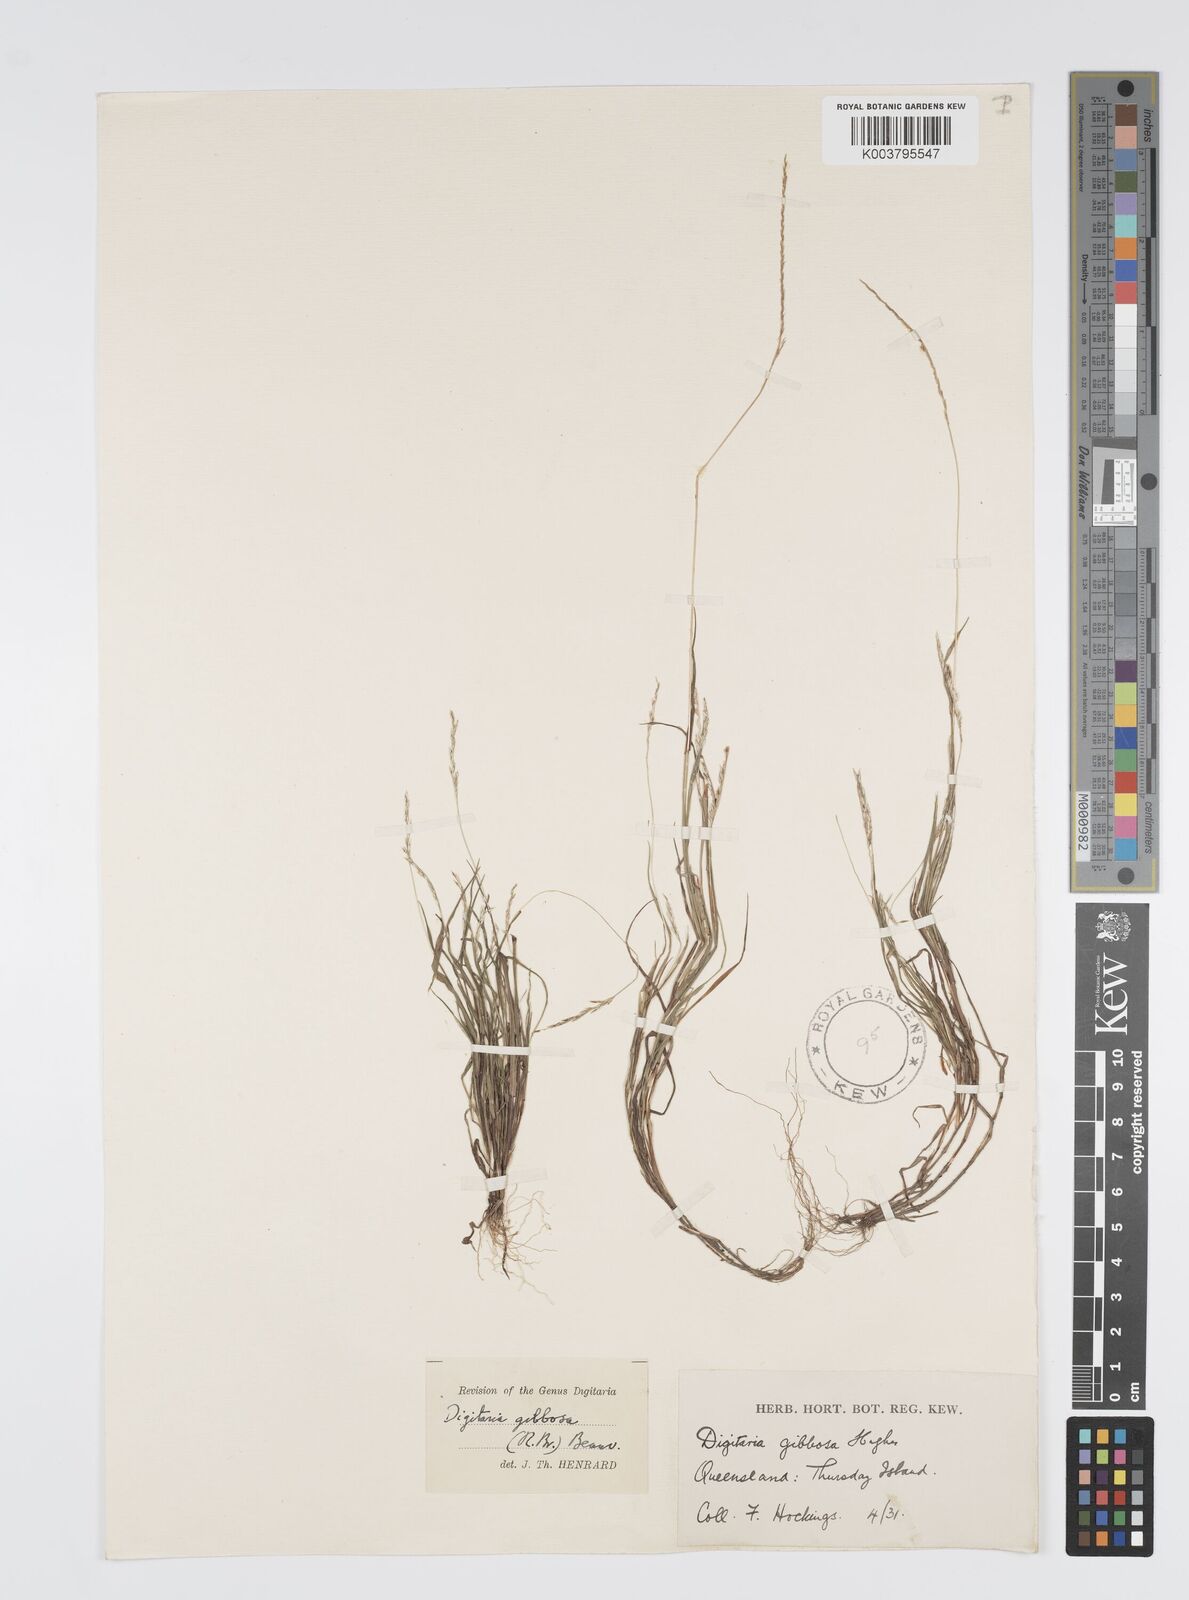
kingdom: Plantae
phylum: Tracheophyta
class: Liliopsida
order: Poales
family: Poaceae
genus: Digitaria
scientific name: Digitaria gibbosa
